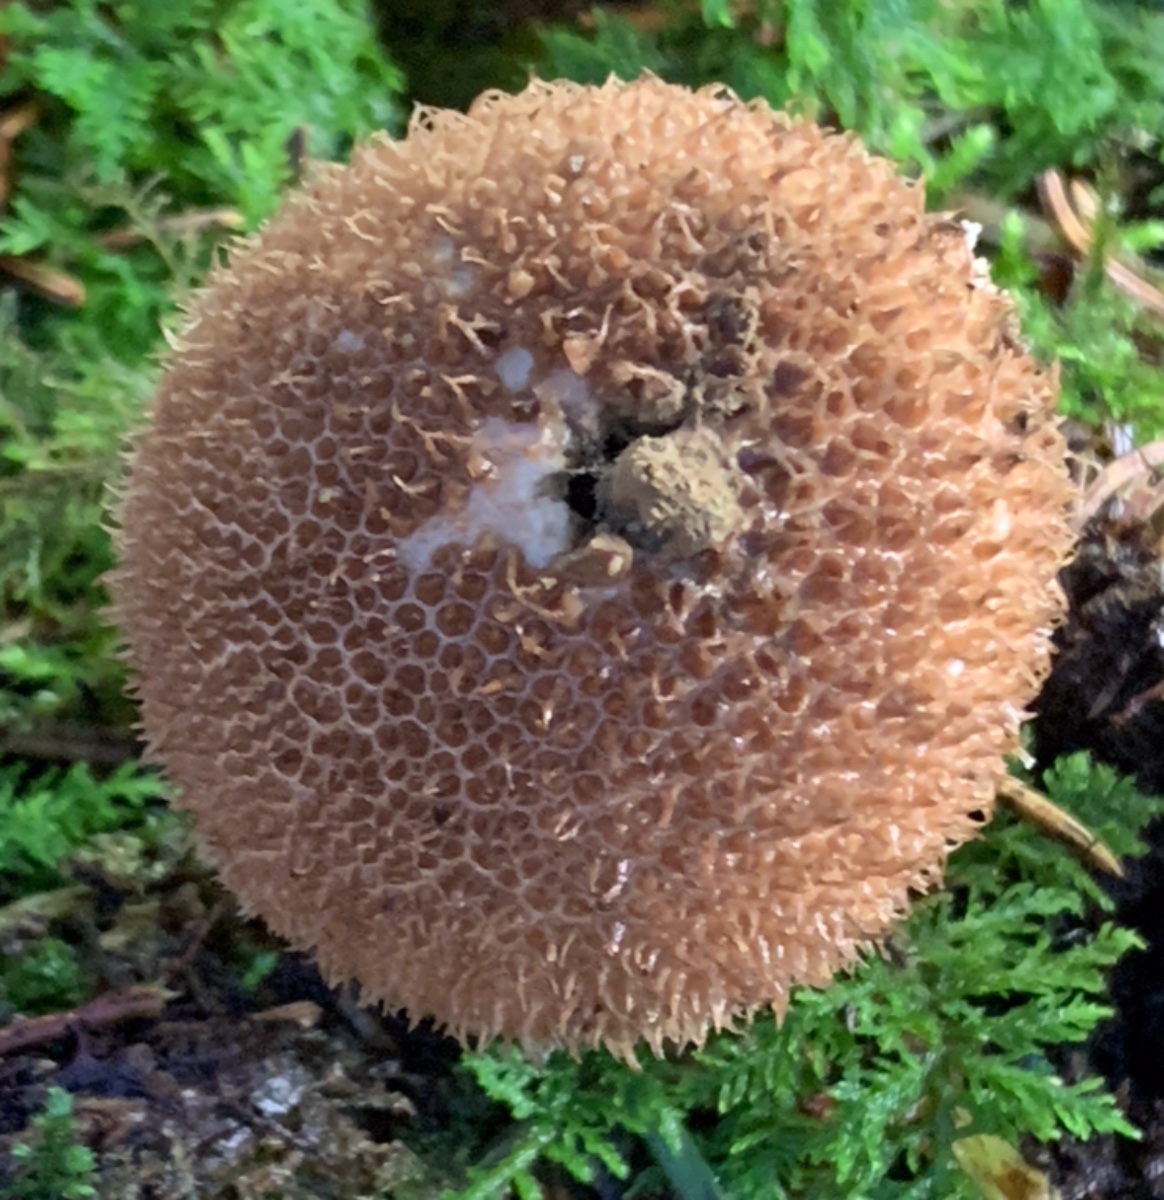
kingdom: Fungi
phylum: Basidiomycota
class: Agaricomycetes
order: Agaricales
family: Lycoperdaceae
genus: Lycoperdon
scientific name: Lycoperdon nigrescens
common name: sortagtig støvbold
